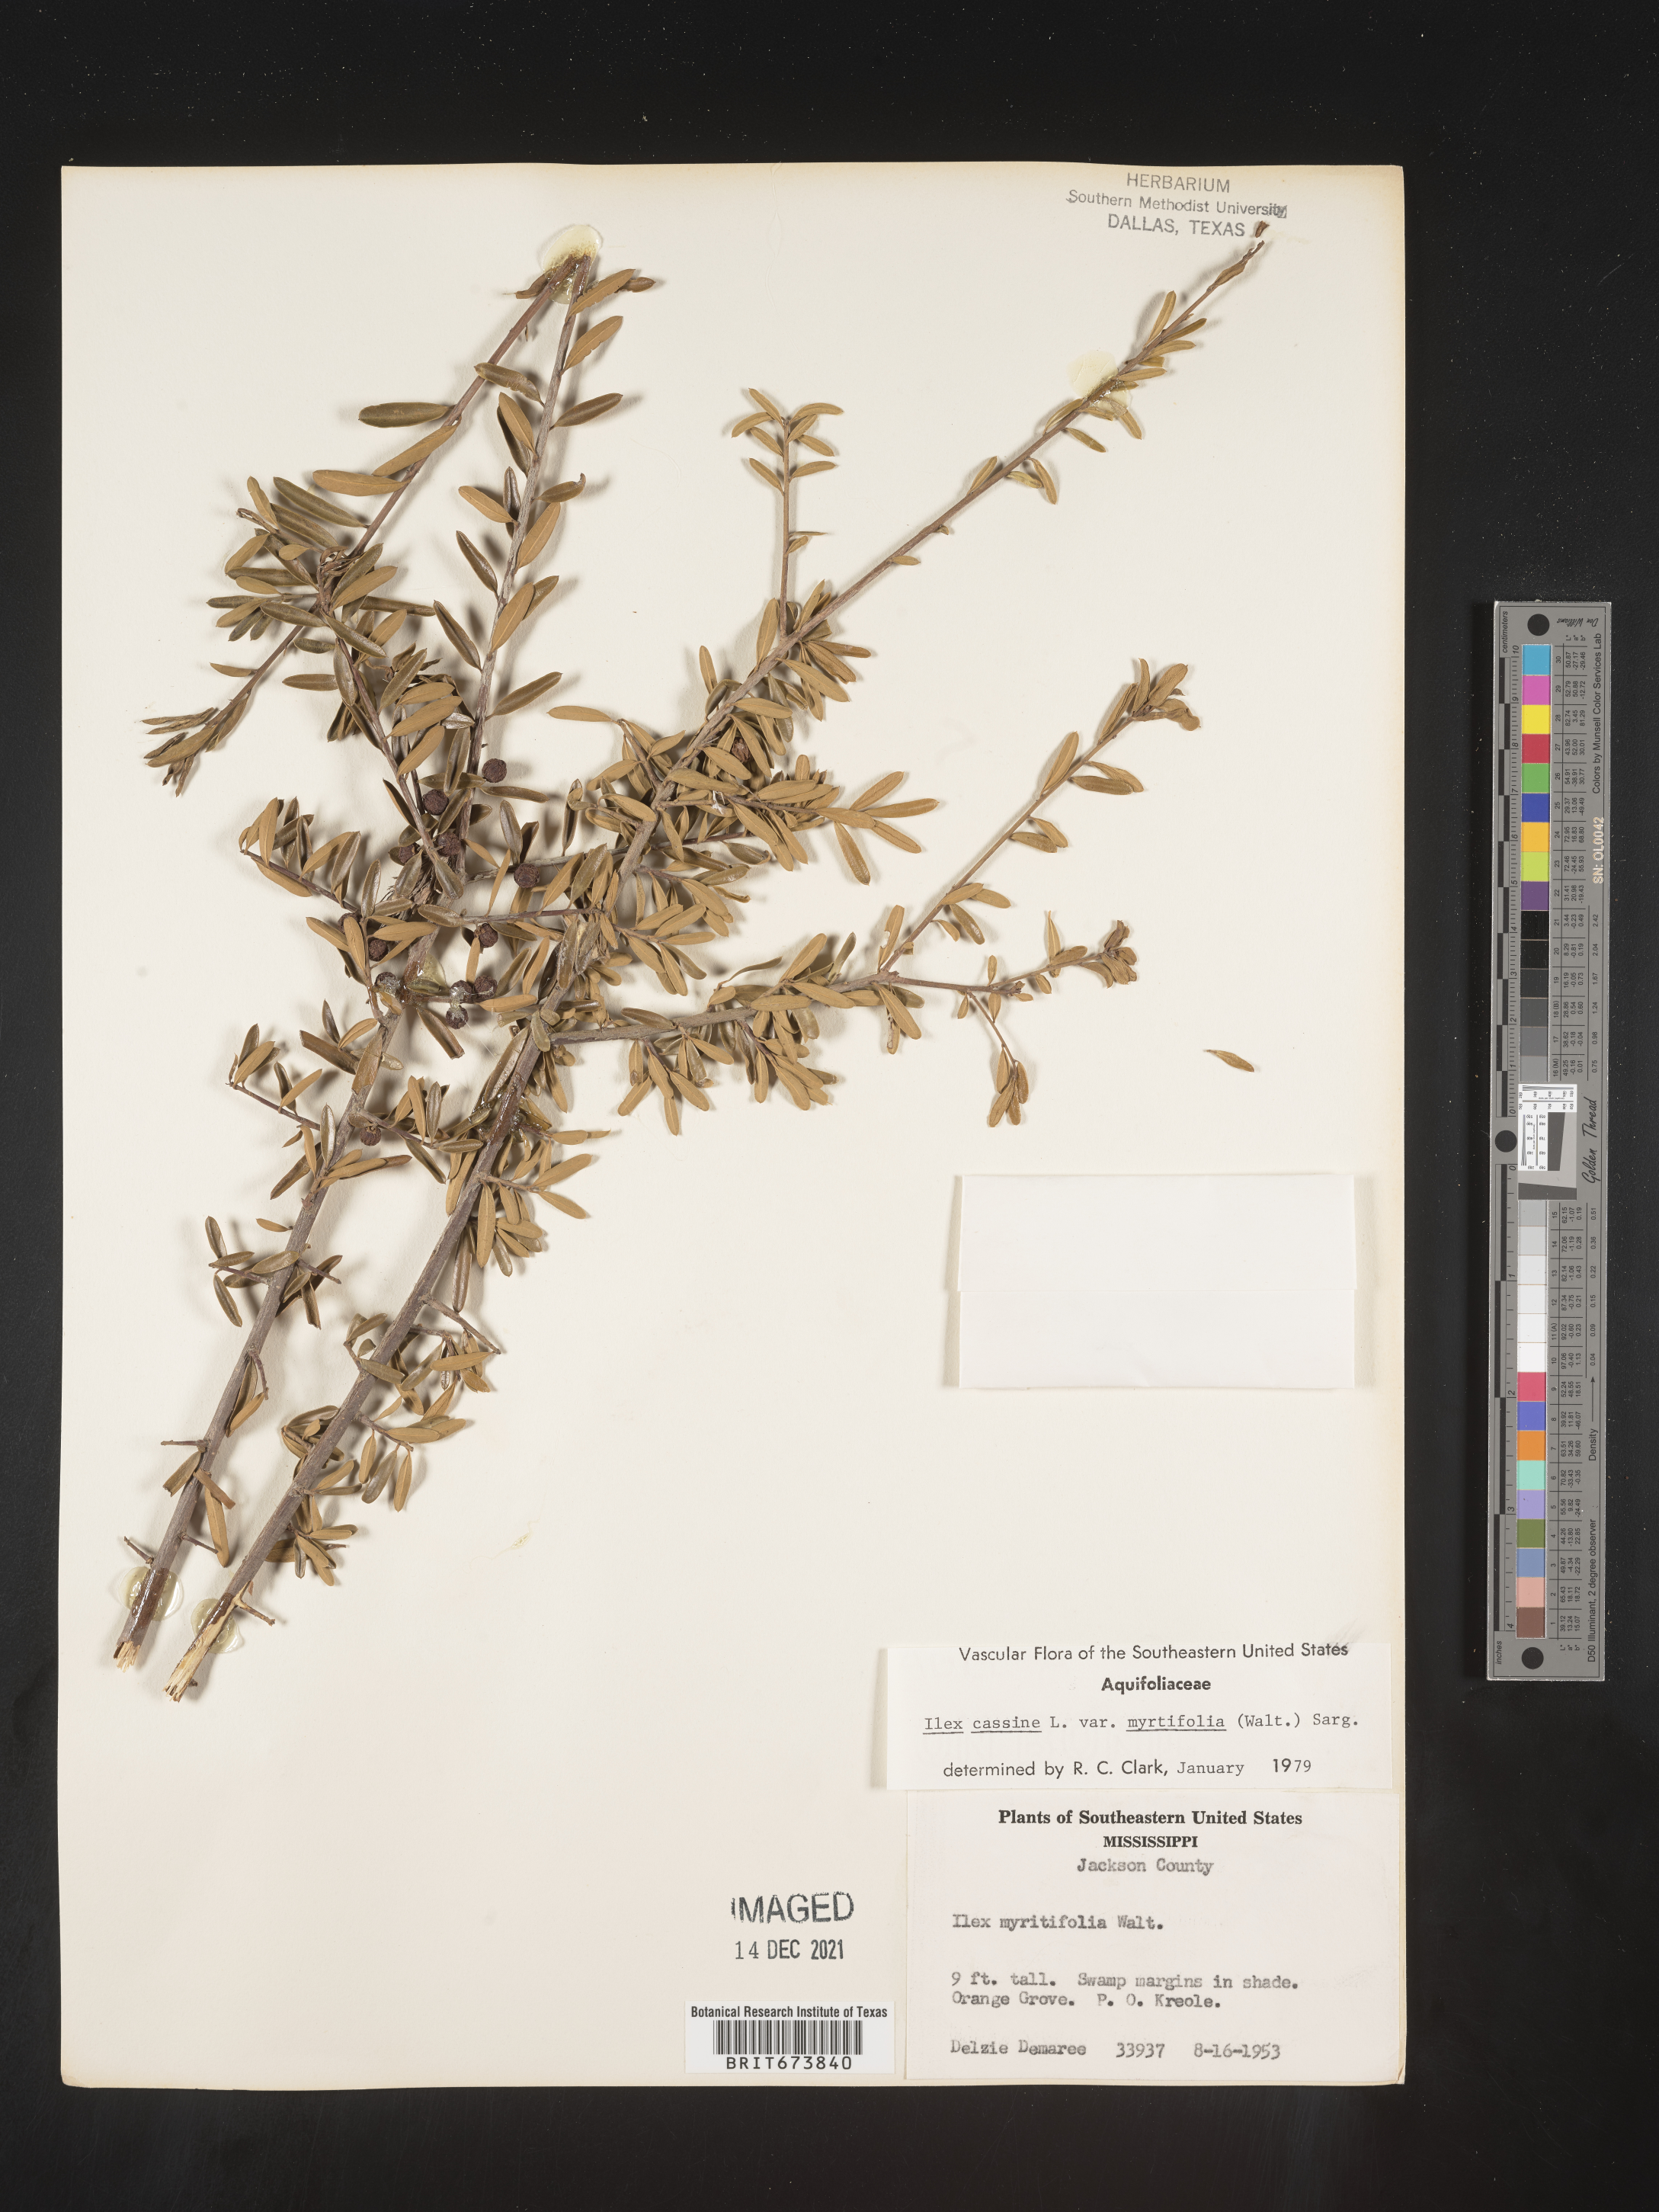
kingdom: Plantae
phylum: Tracheophyta
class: Magnoliopsida
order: Aquifoliales
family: Aquifoliaceae
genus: Ilex
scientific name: Ilex myrtifolia
